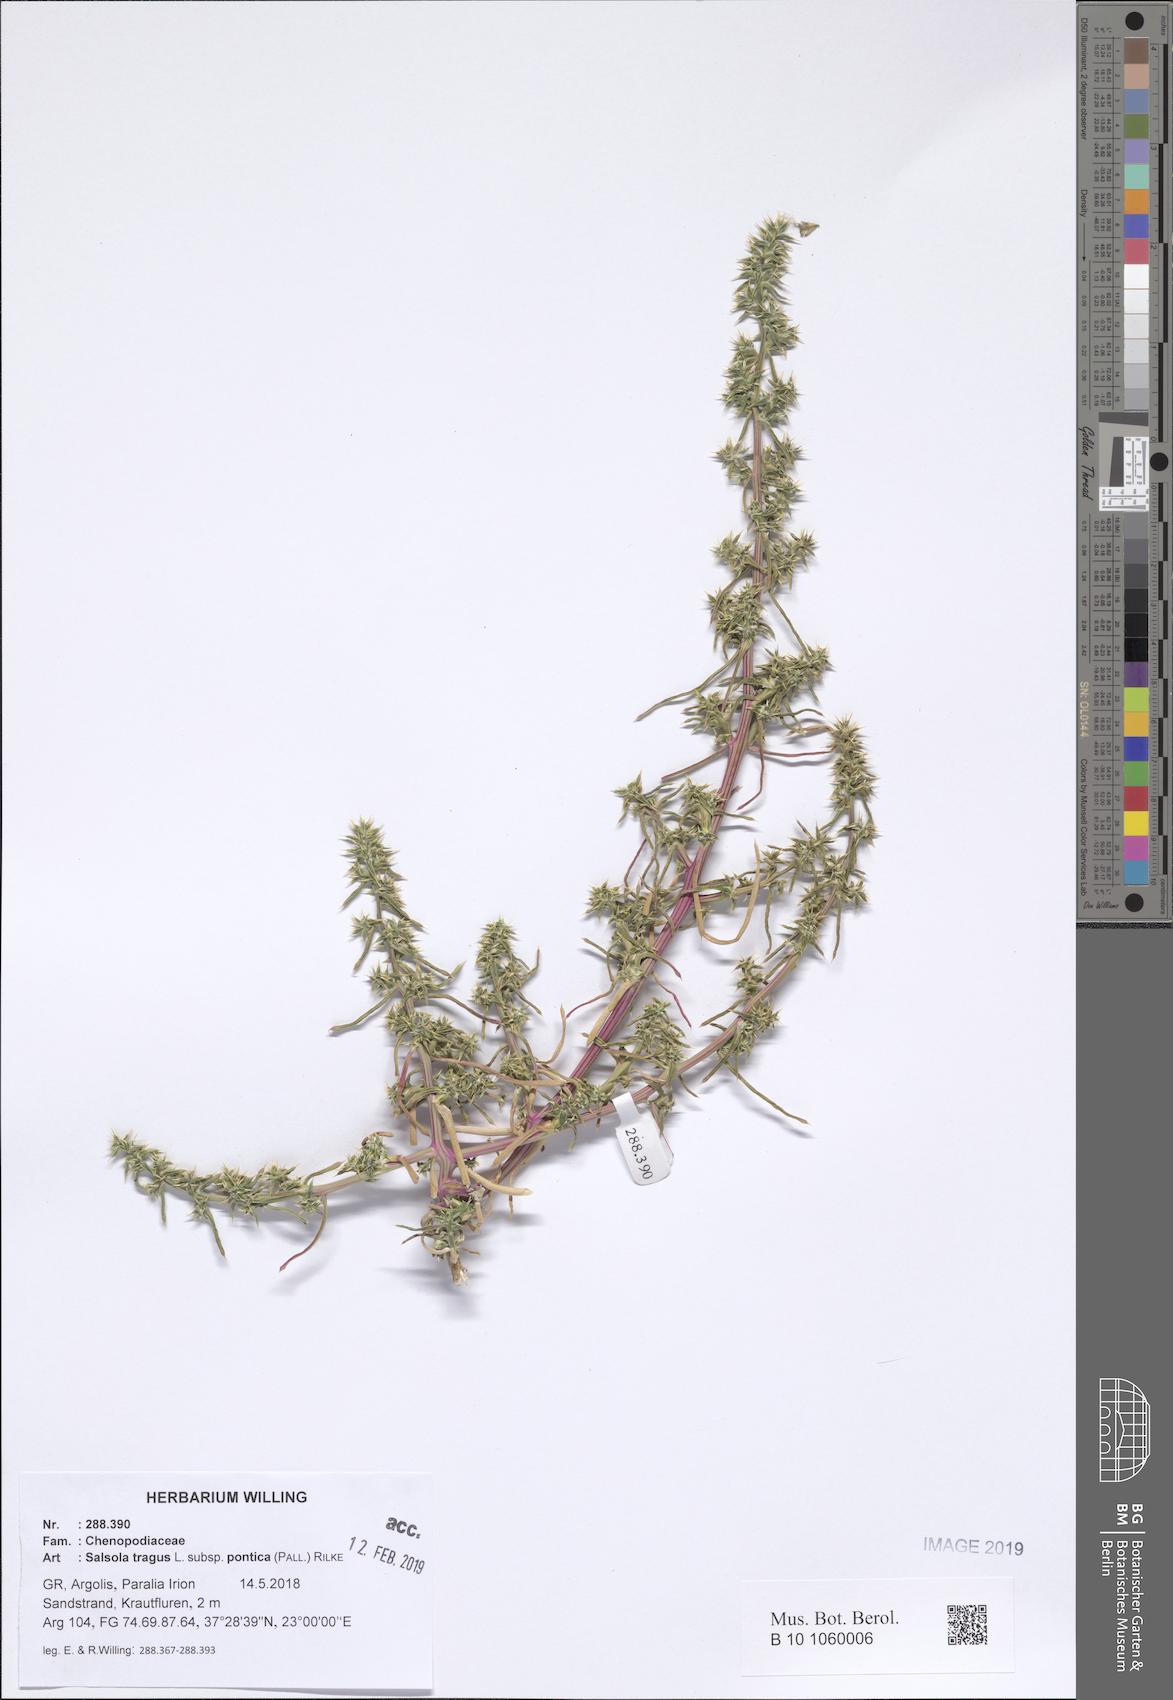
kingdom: Plantae
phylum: Tracheophyta
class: Magnoliopsida
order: Caryophyllales
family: Amaranthaceae
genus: Salsola
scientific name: Salsola squarrosa
